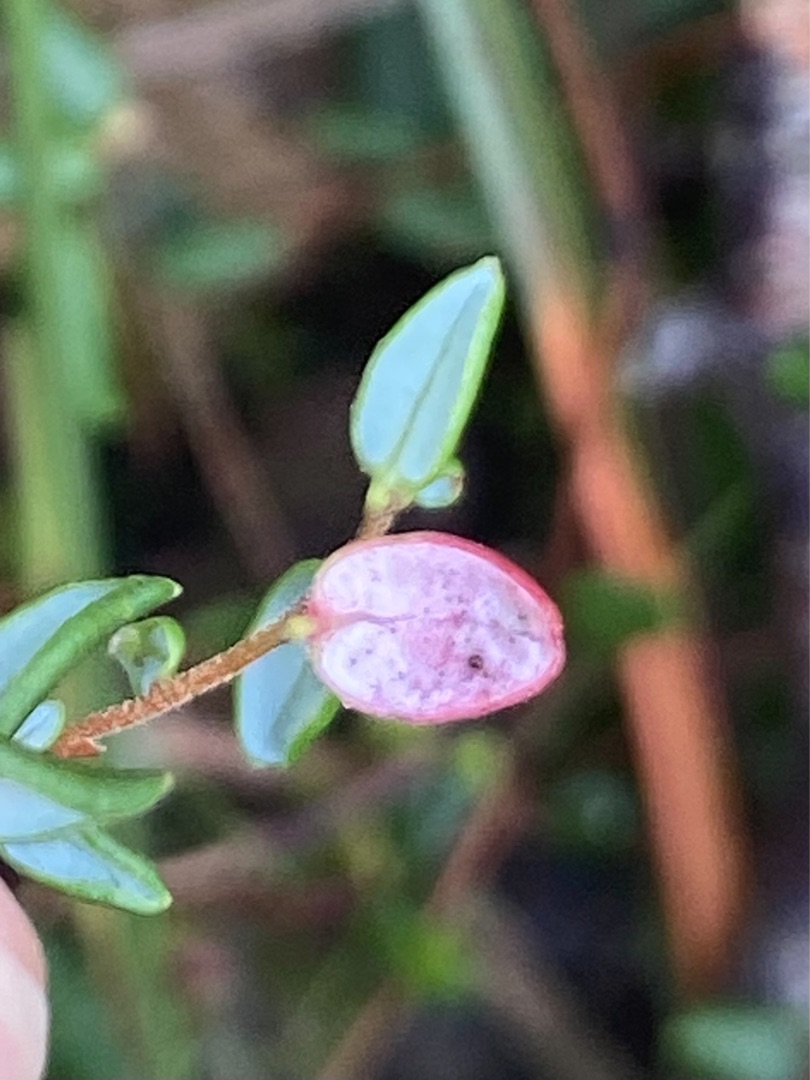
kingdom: Fungi
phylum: Basidiomycota
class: Exobasidiomycetes
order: Exobasidiales
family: Exobasidiaceae
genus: Exobasidium
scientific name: Exobasidium rostrupii
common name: Tranebærblad-bøllesvamp
